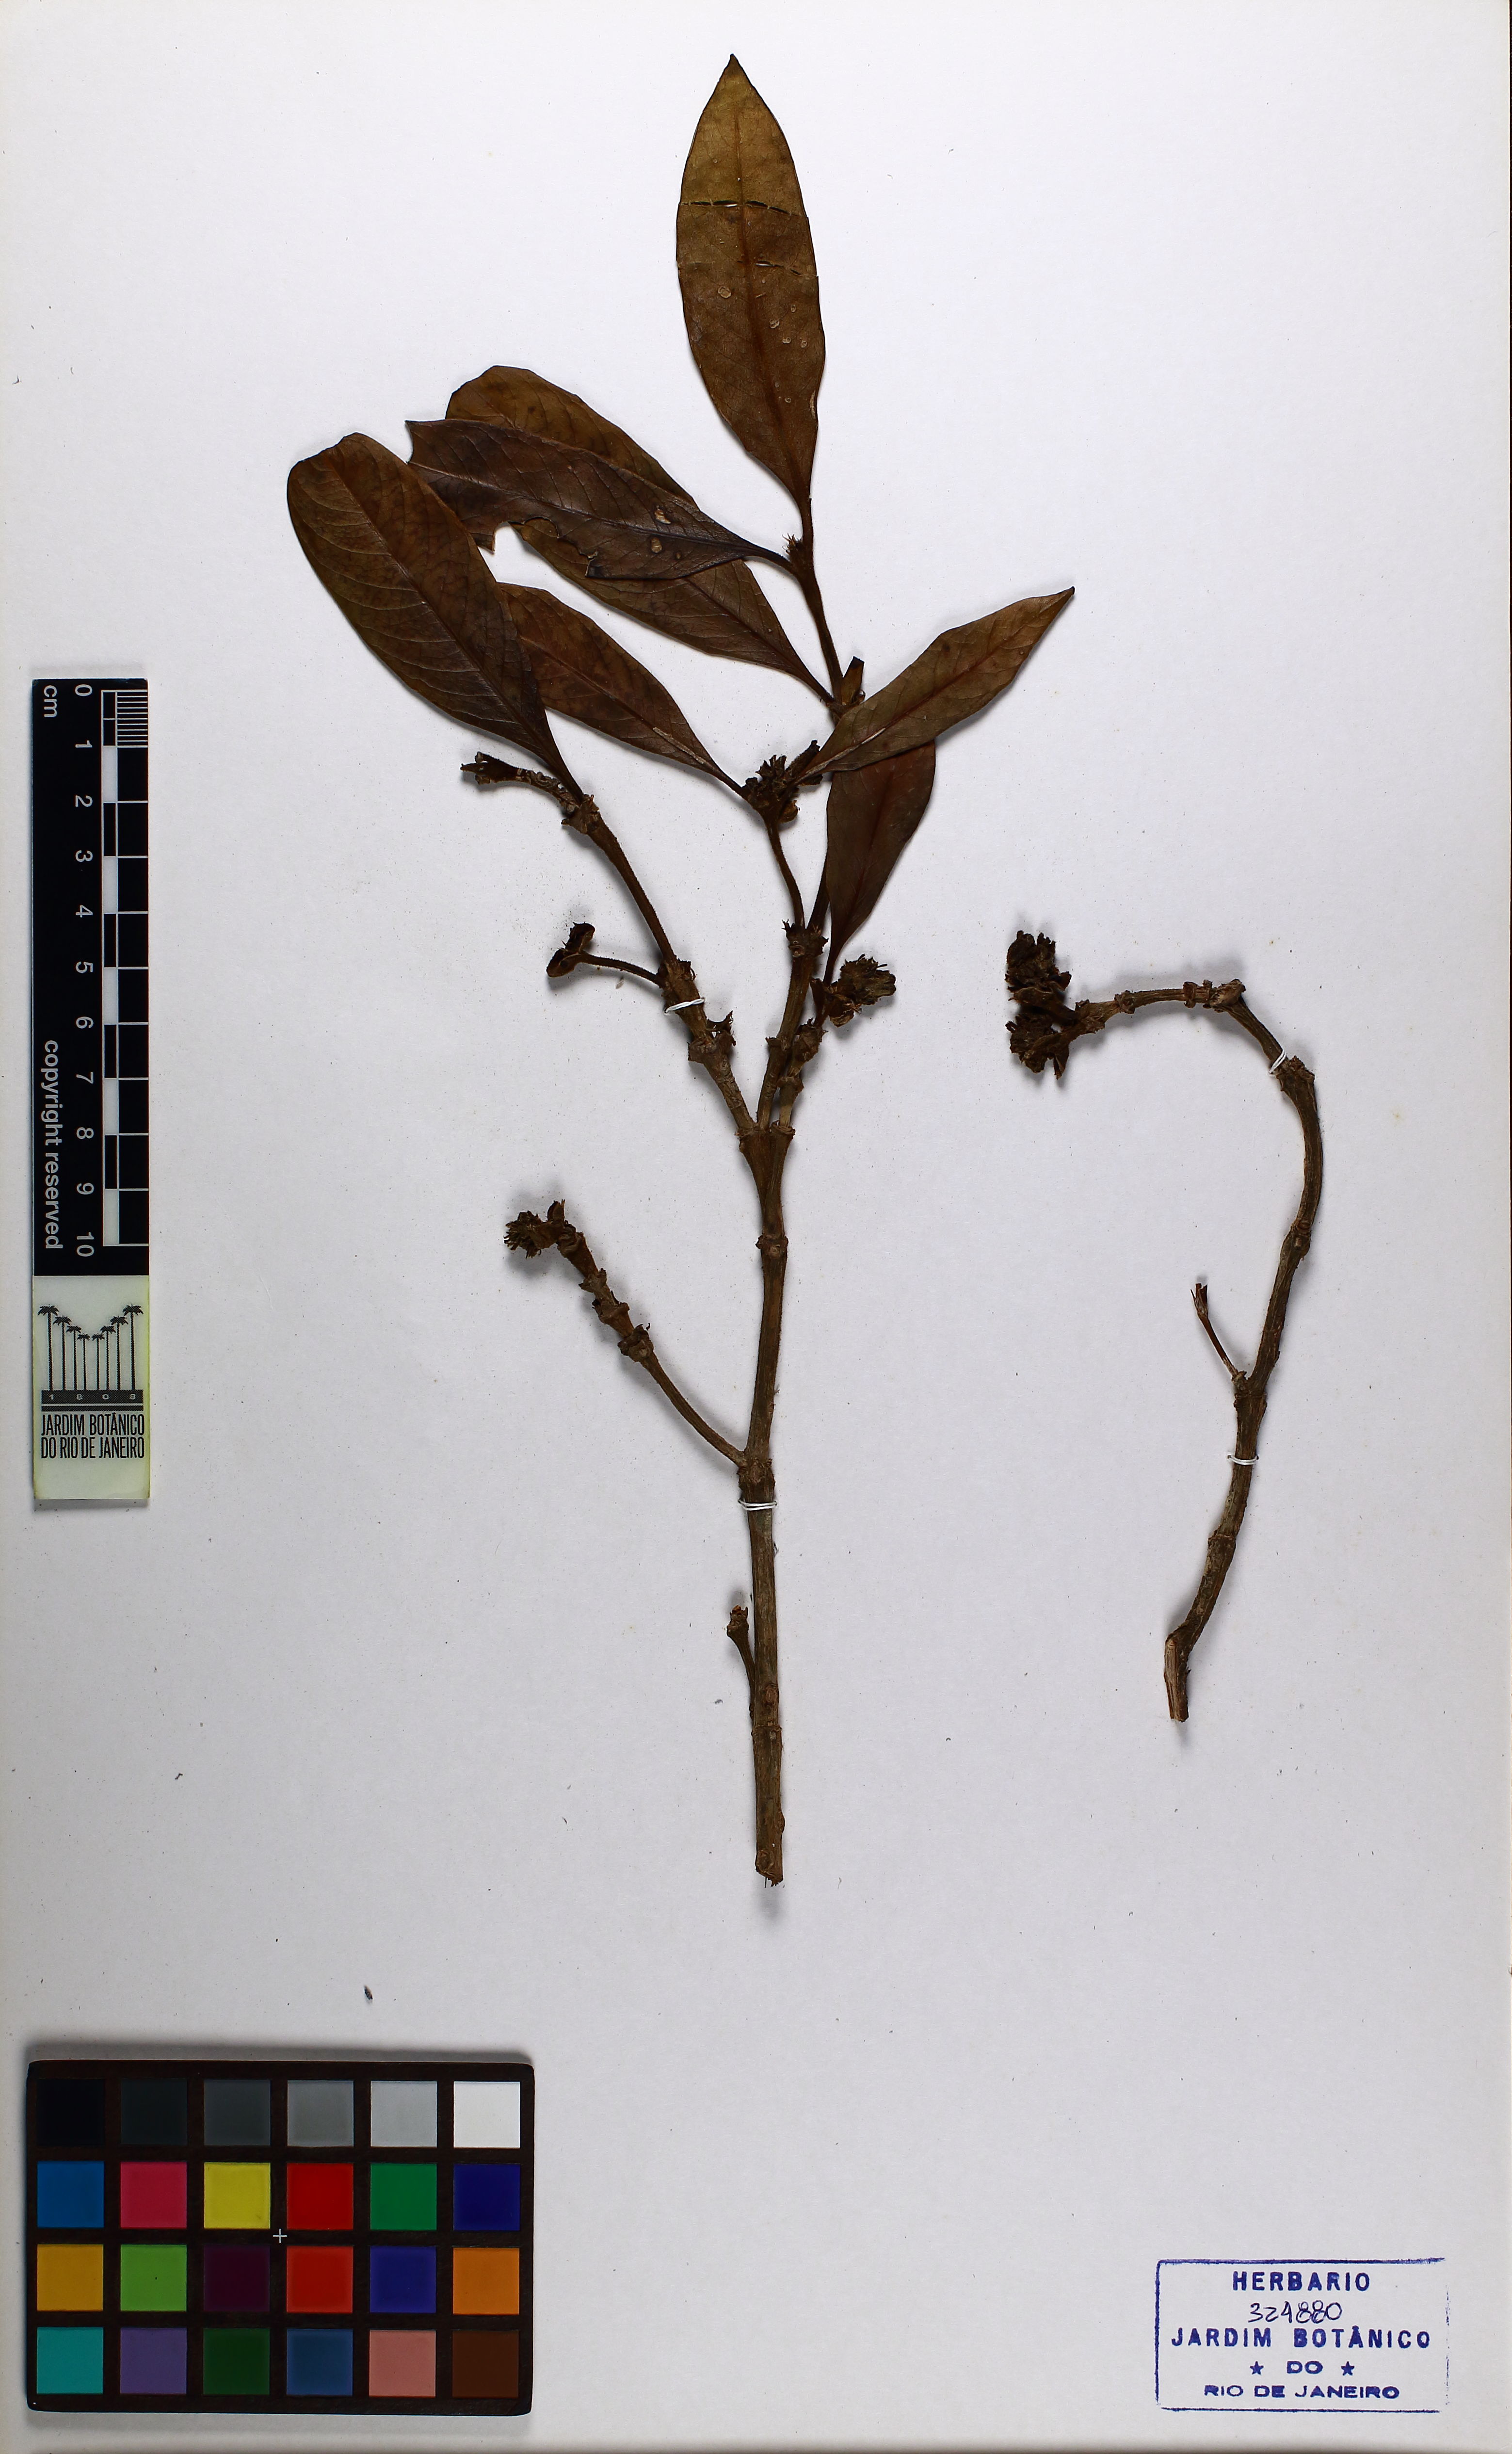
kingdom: Plantae
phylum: Tracheophyta
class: Magnoliopsida
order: Gentianales
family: Rubiaceae
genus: Rudgea
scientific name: Rudgea nodosa
